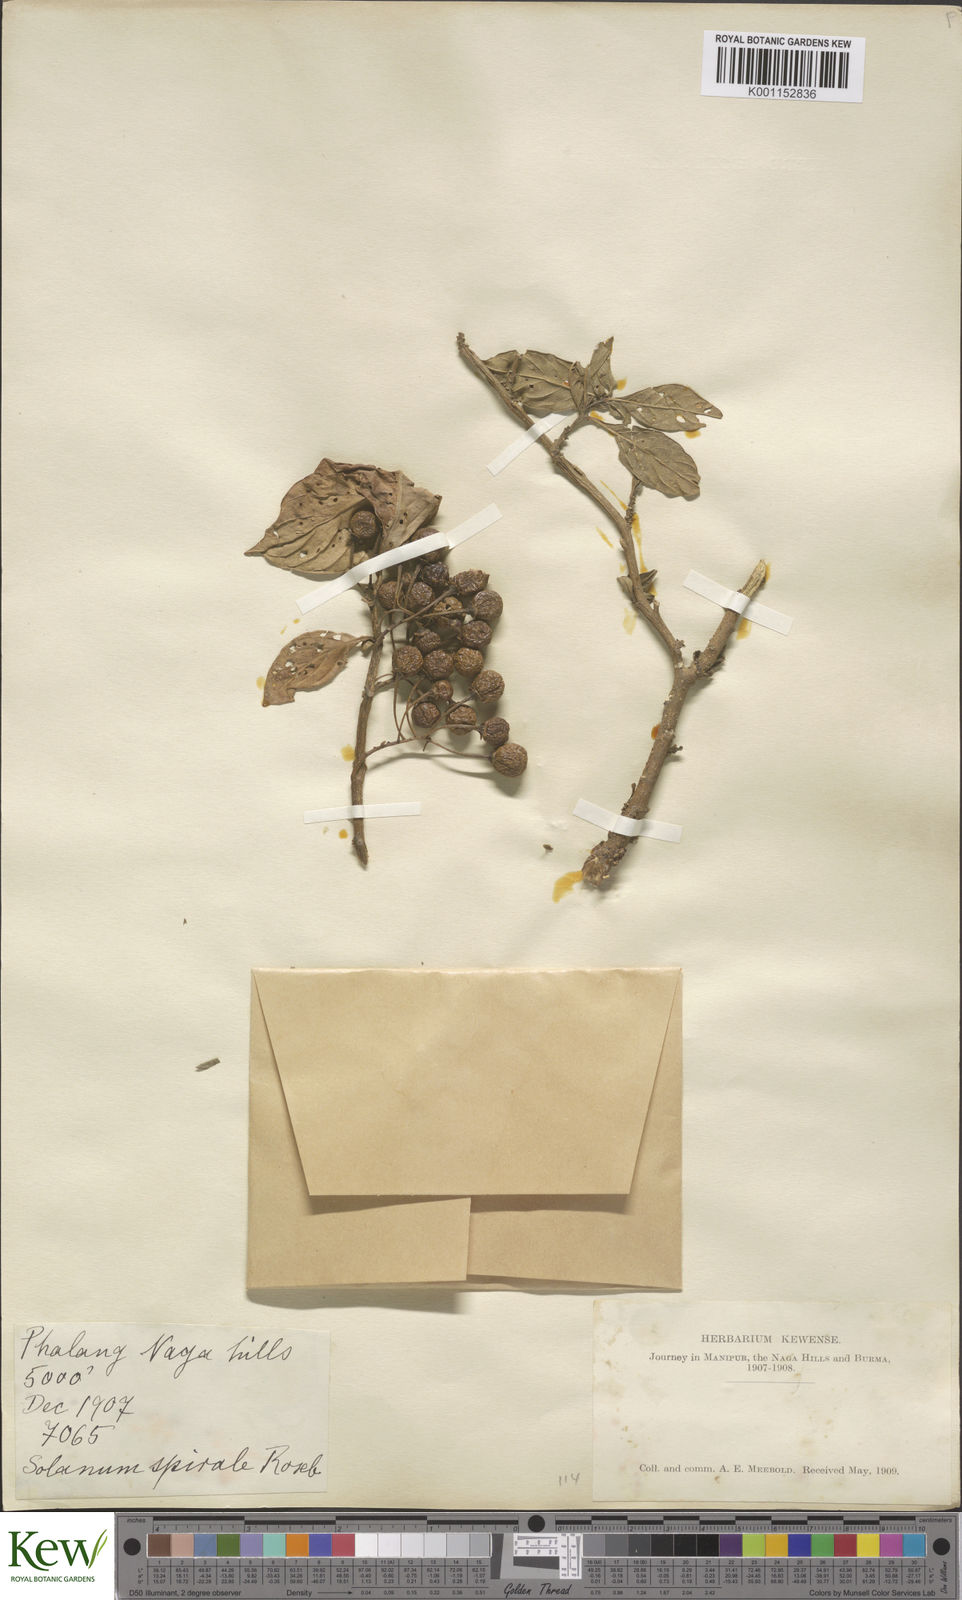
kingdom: Plantae
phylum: Tracheophyta
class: Magnoliopsida
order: Solanales
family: Solanaceae
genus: Solanum
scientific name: Solanum spirale
